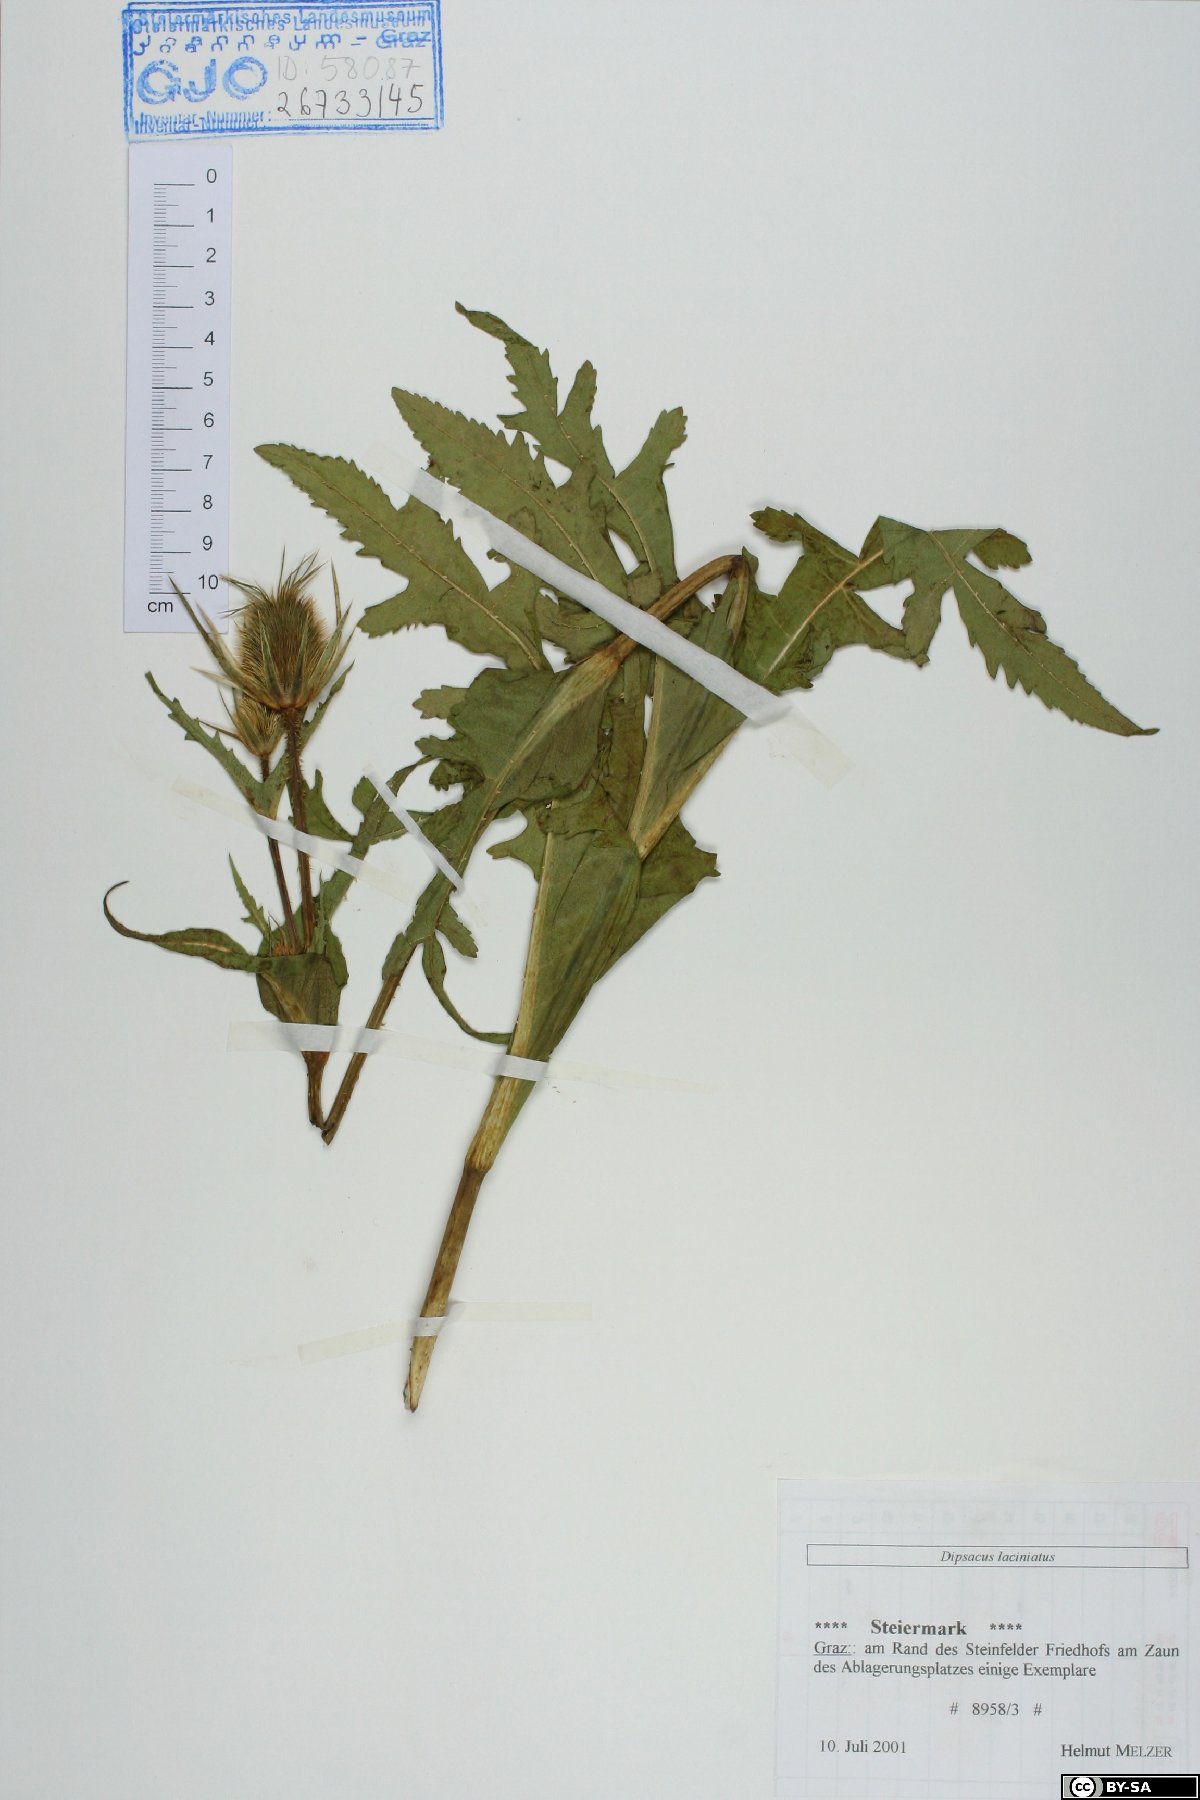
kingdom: Plantae
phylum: Tracheophyta
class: Magnoliopsida
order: Dipsacales
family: Caprifoliaceae
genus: Dipsacus
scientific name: Dipsacus laciniatus
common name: Cut-leaved teasel
